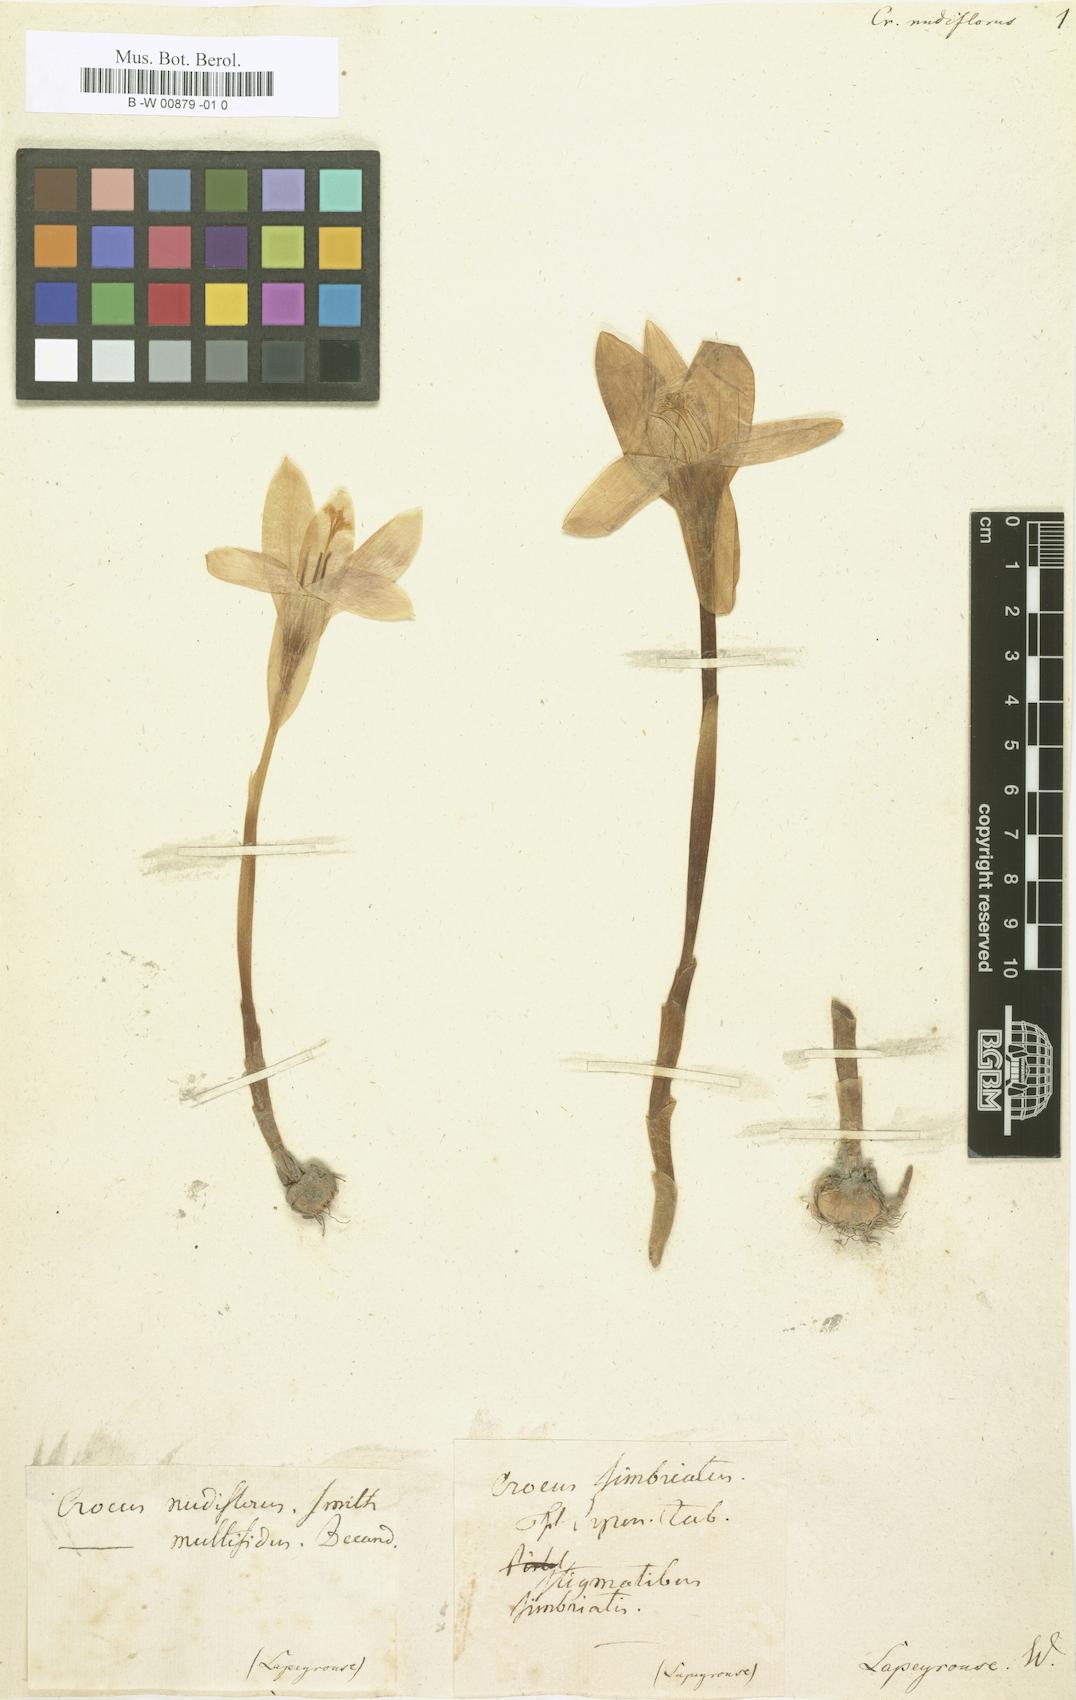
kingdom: Plantae
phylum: Tracheophyta
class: Liliopsida
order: Asparagales
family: Iridaceae
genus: Crocus
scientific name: Crocus nudiflorus
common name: Autumn crocus
